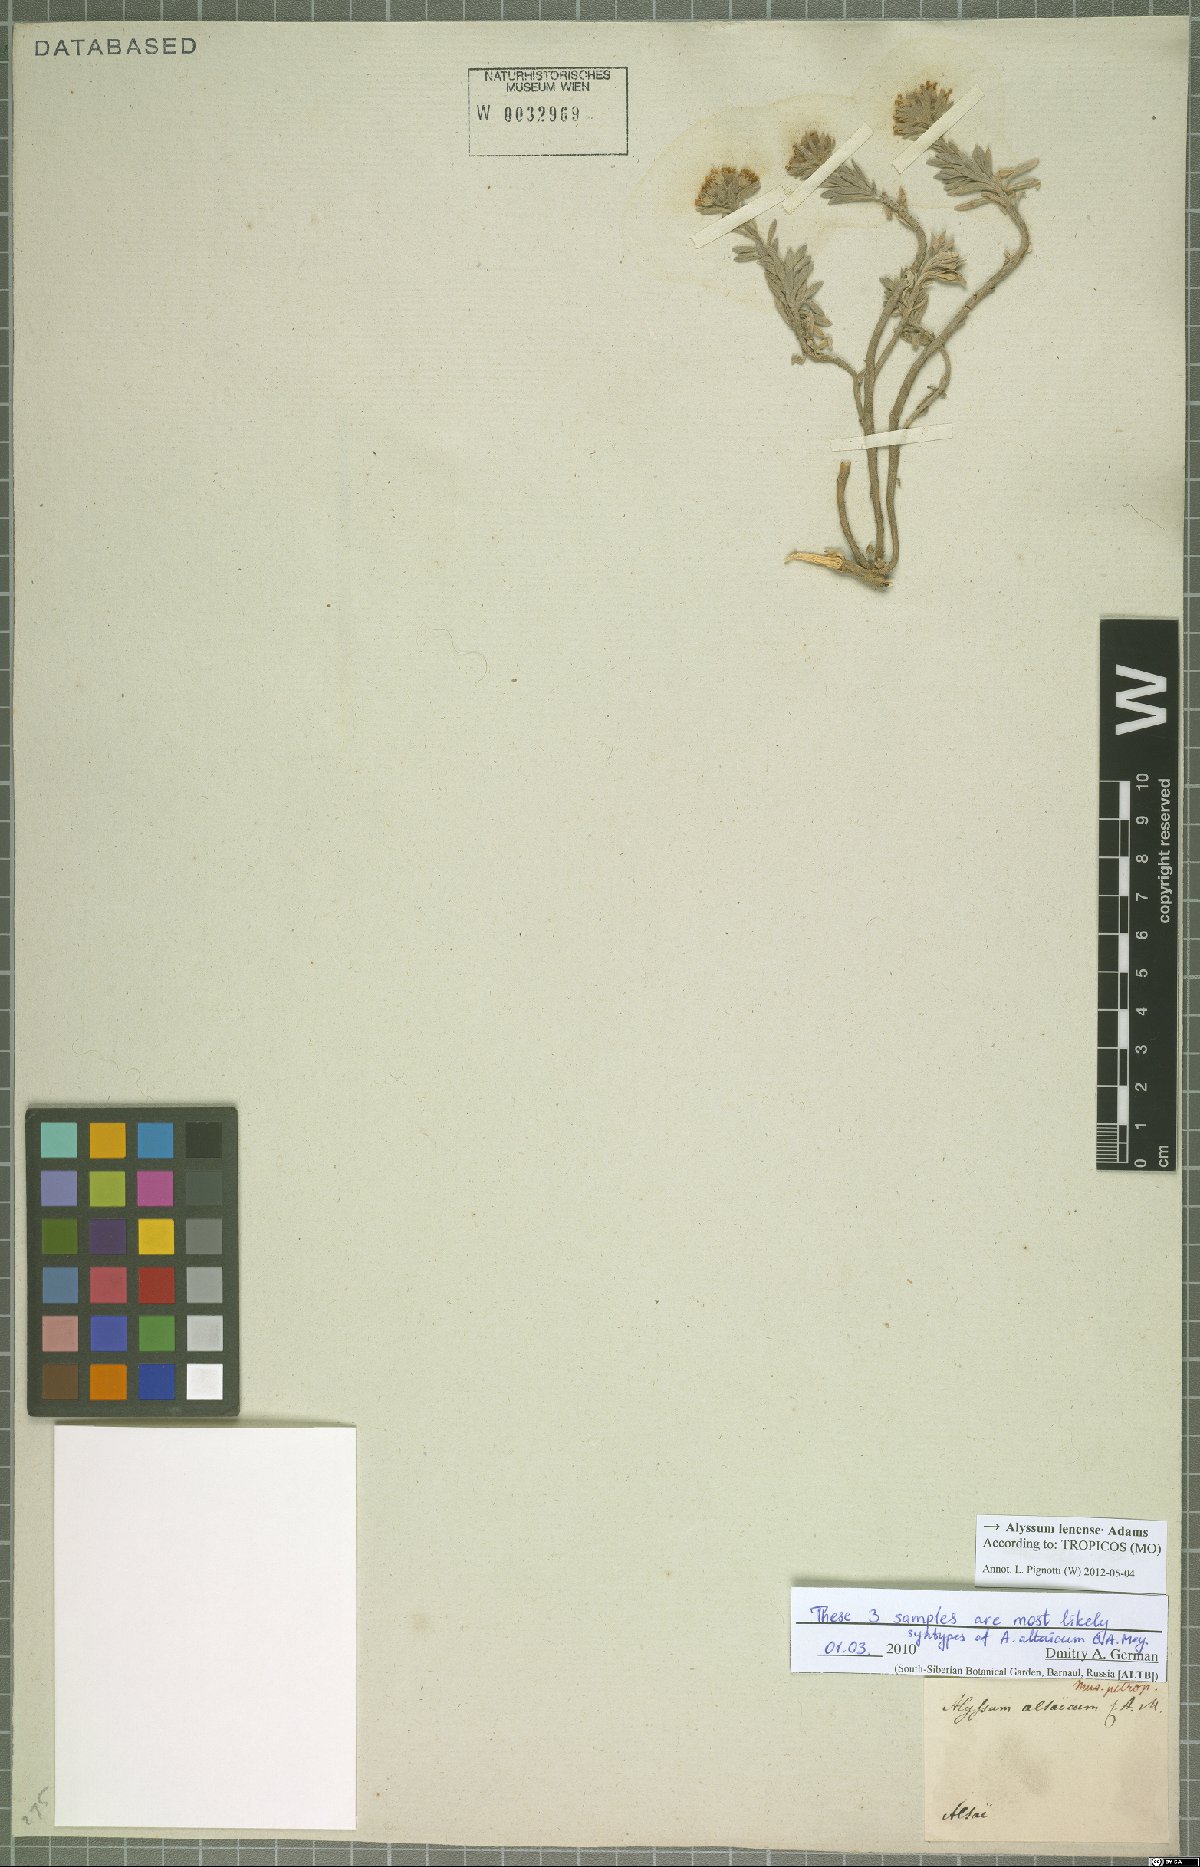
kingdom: Plantae
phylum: Tracheophyta
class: Magnoliopsida
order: Brassicales
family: Brassicaceae
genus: Alyssum
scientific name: Alyssum lenense
